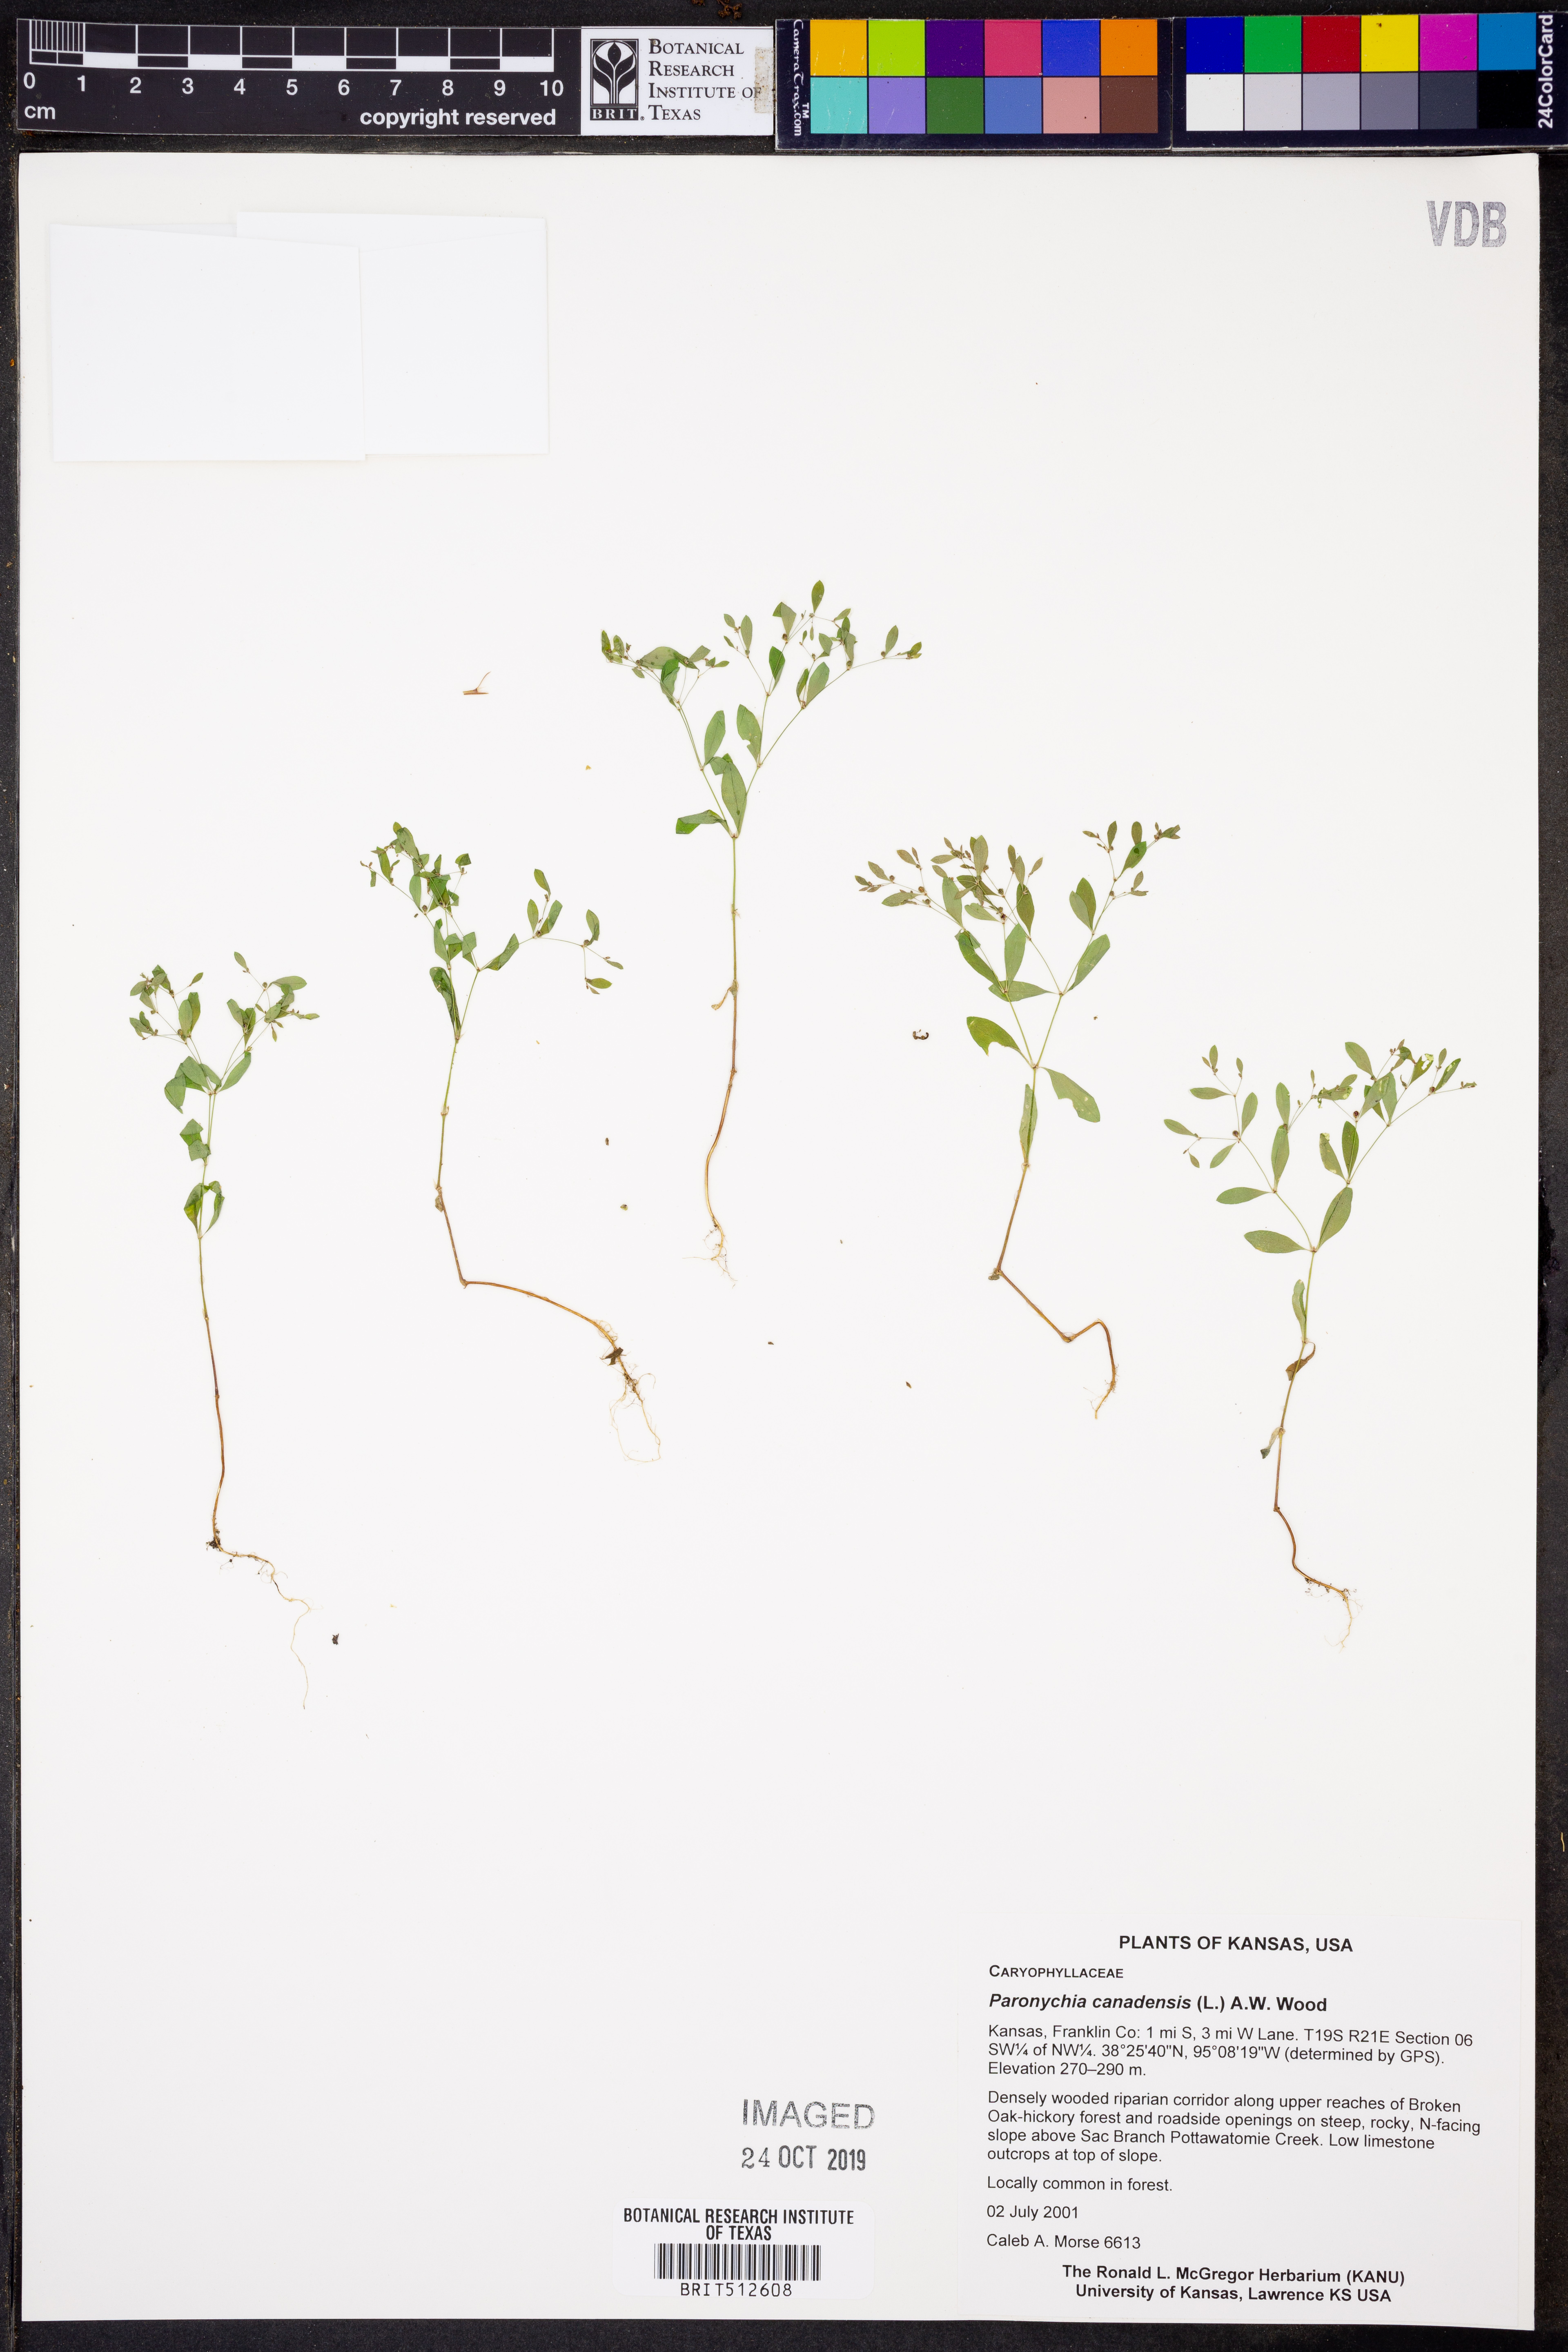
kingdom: Plantae
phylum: Tracheophyta
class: Magnoliopsida
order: Caryophyllales
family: Caryophyllaceae
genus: Paronychia
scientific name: Paronychia canadensis
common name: Canada forked nailwort
